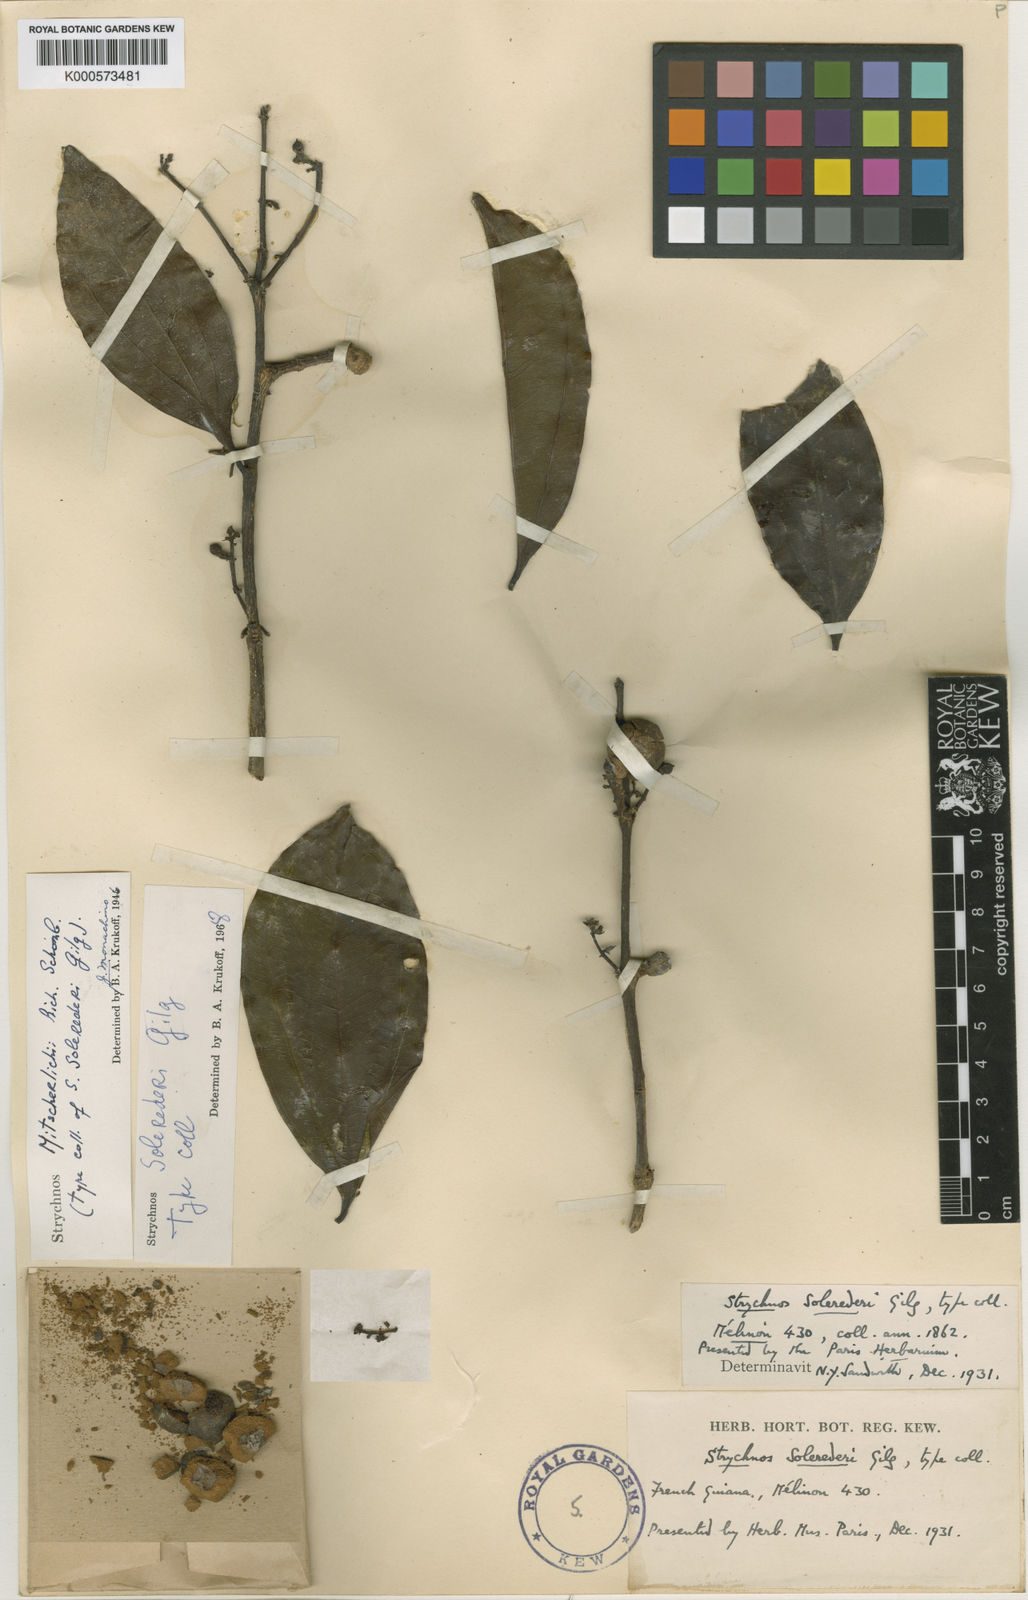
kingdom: Plantae
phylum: Tracheophyta
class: Magnoliopsida
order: Gentianales
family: Loganiaceae
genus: Strychnos
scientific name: Strychnos solerederi
